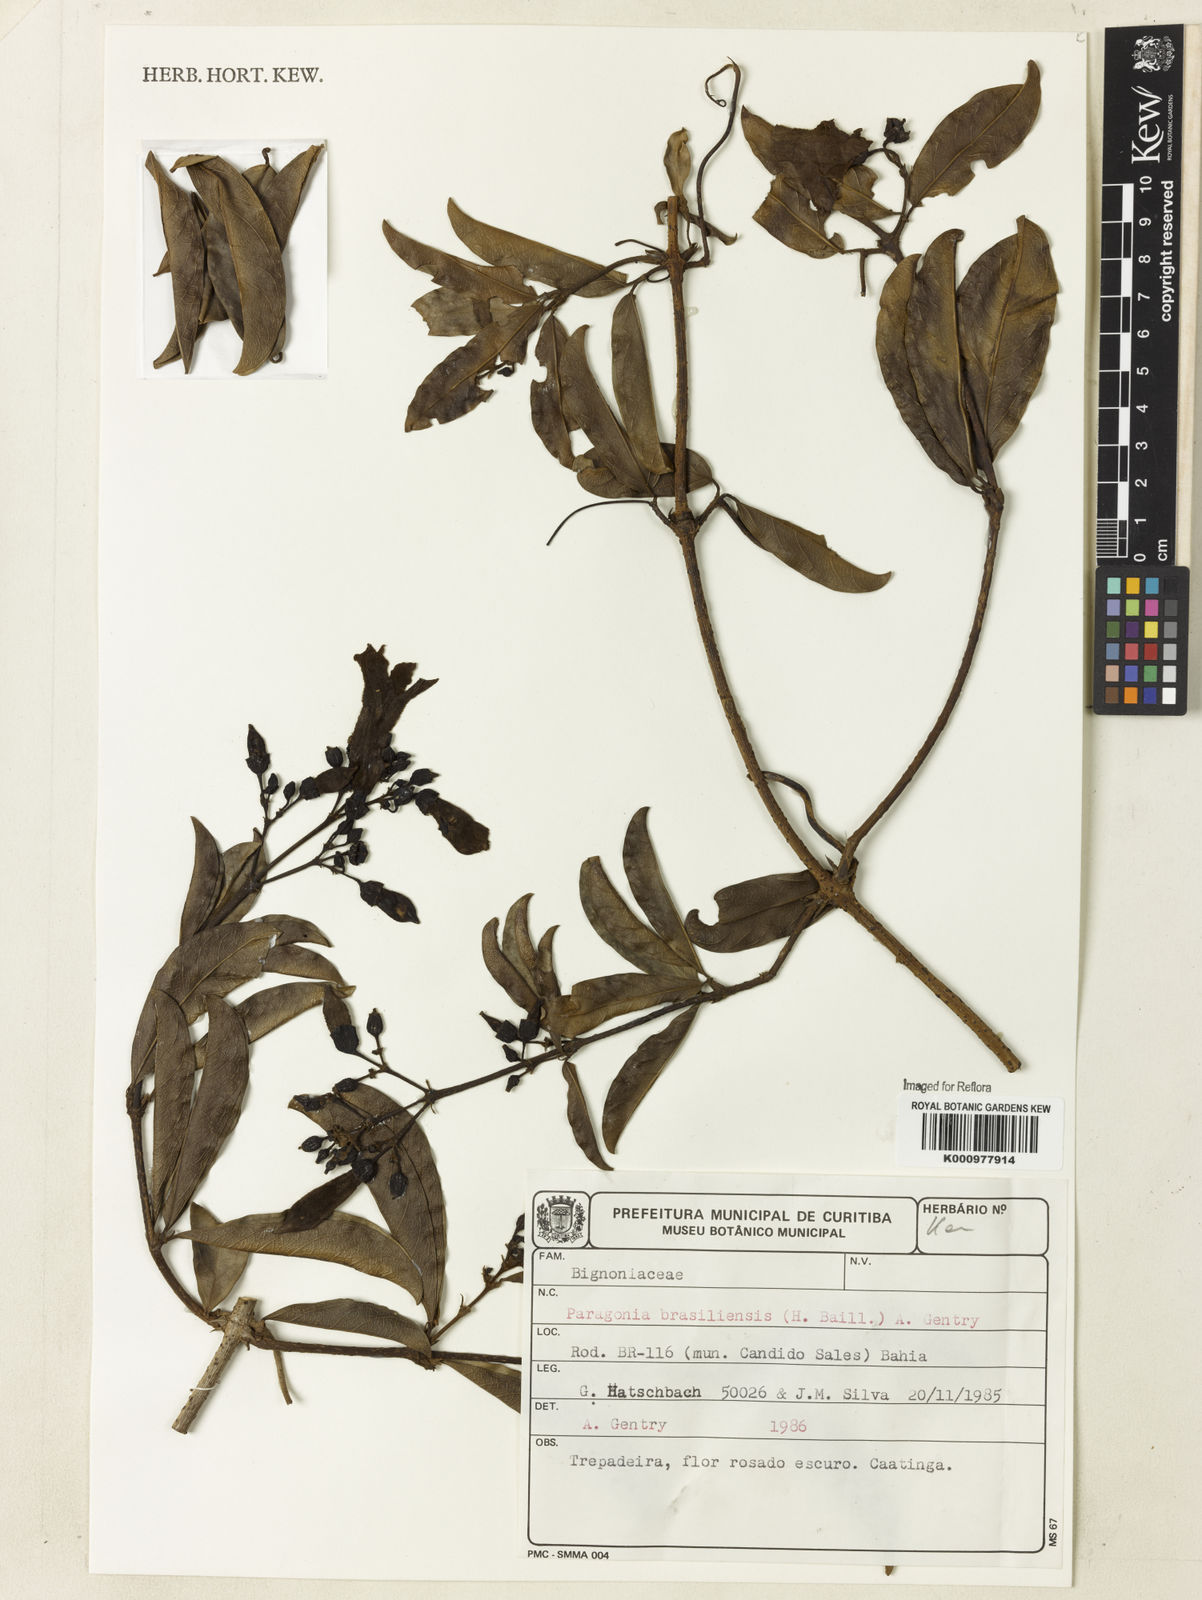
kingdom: Plantae
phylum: Tracheophyta
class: Magnoliopsida
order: Lamiales
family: Bignoniaceae
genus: Tanaecium
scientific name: Tanaecium neobrasiliense
